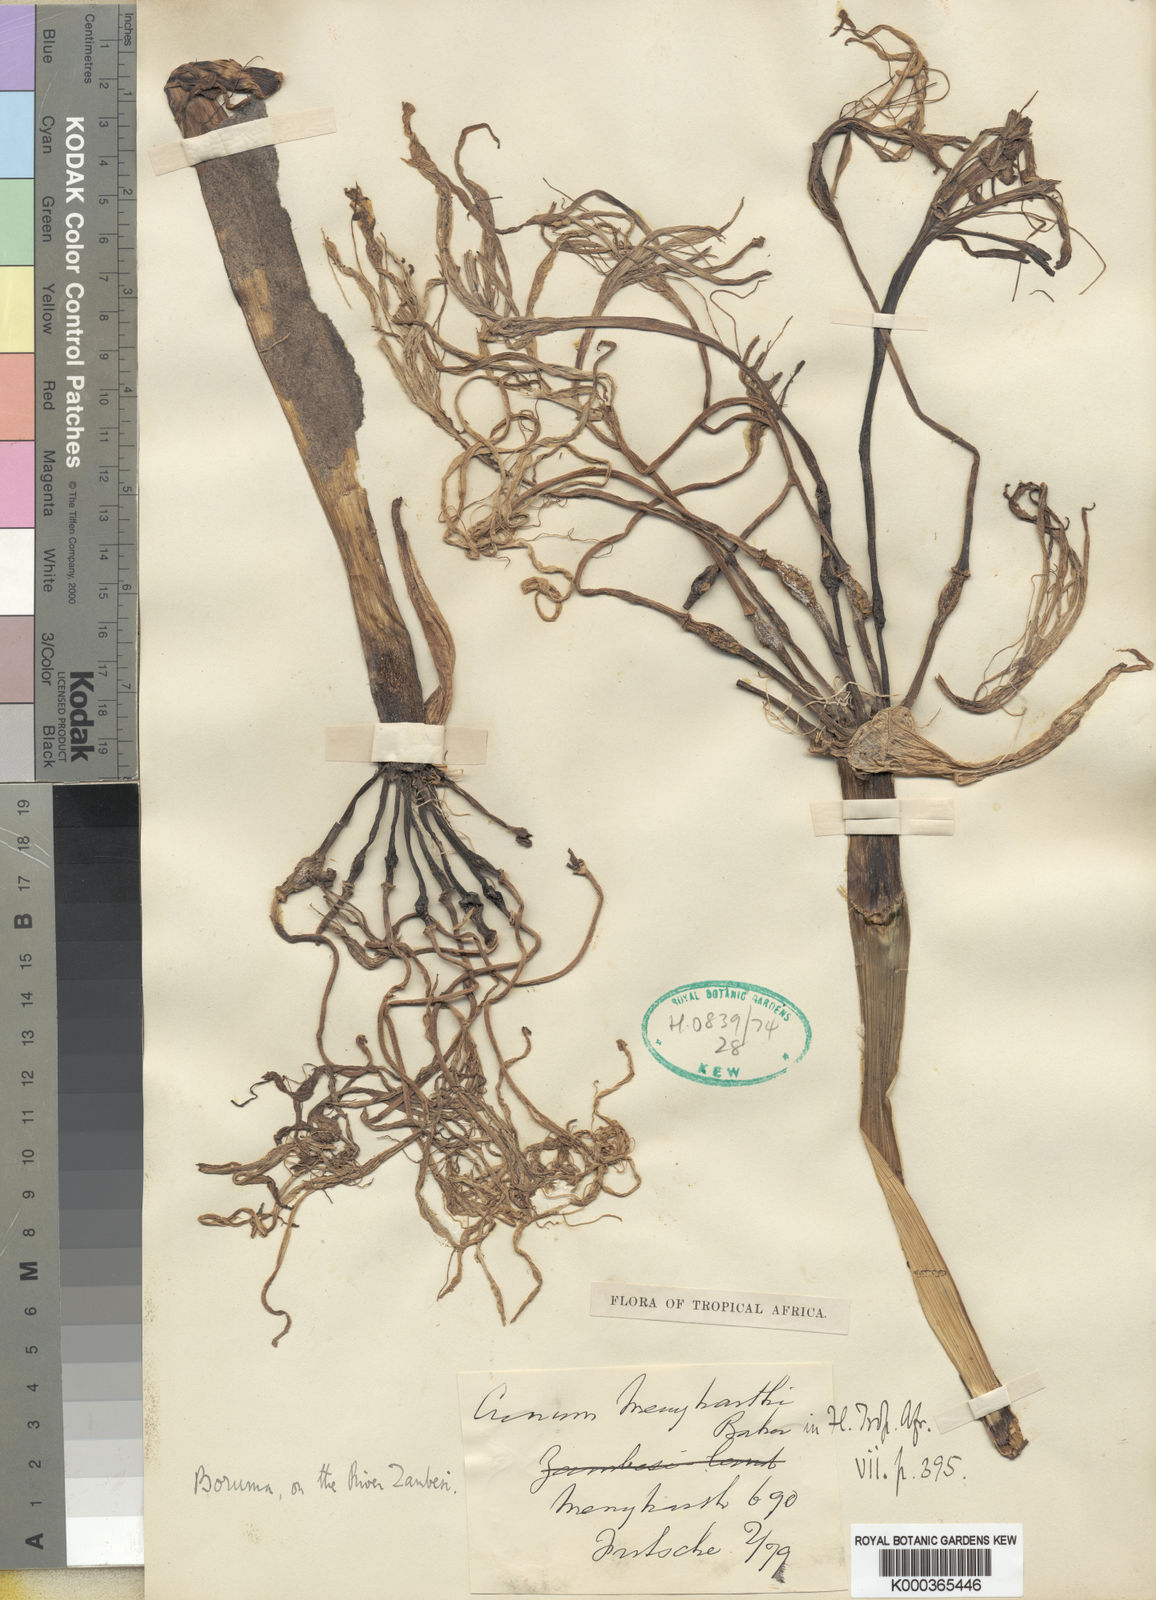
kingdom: Plantae
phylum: Tracheophyta
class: Liliopsida
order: Asparagales
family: Amaryllidaceae
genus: Crinum
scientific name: Crinum subcernuum
